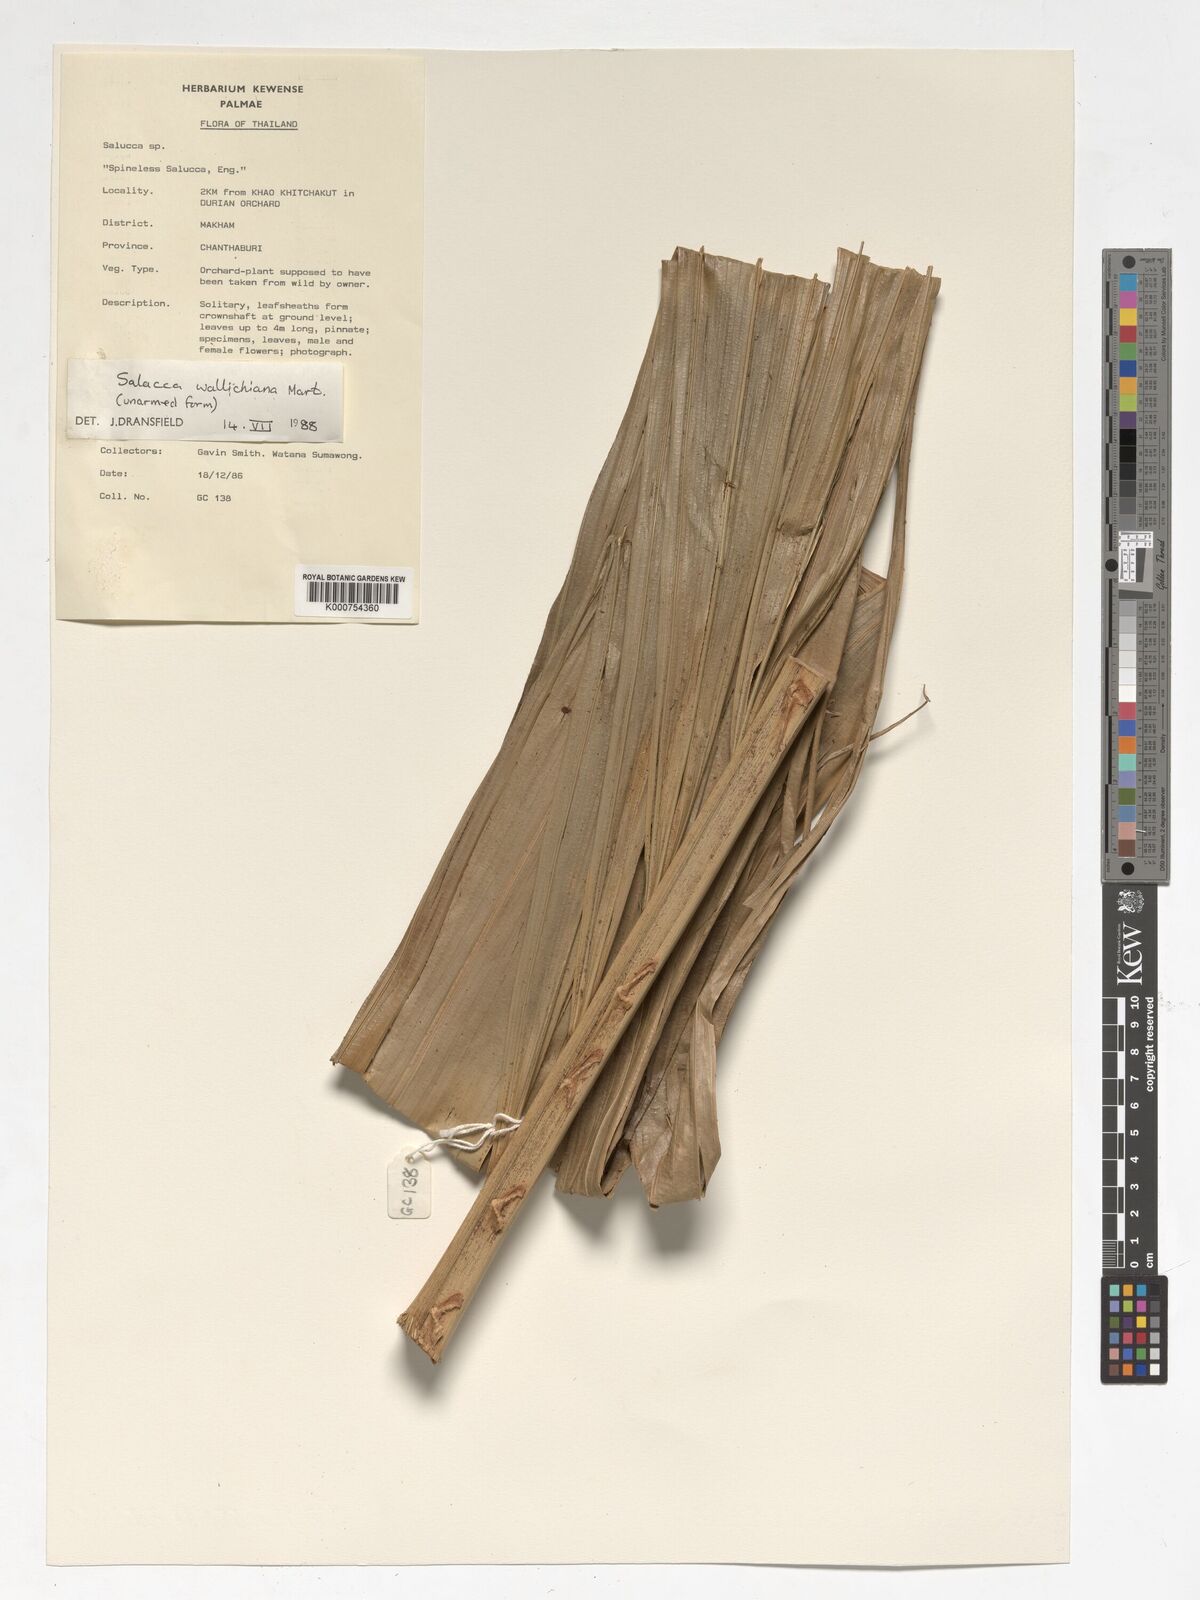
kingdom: Plantae
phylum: Tracheophyta
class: Liliopsida
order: Arecales
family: Arecaceae
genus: Salacca
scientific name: Salacca wallichiana
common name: Rakum palm
